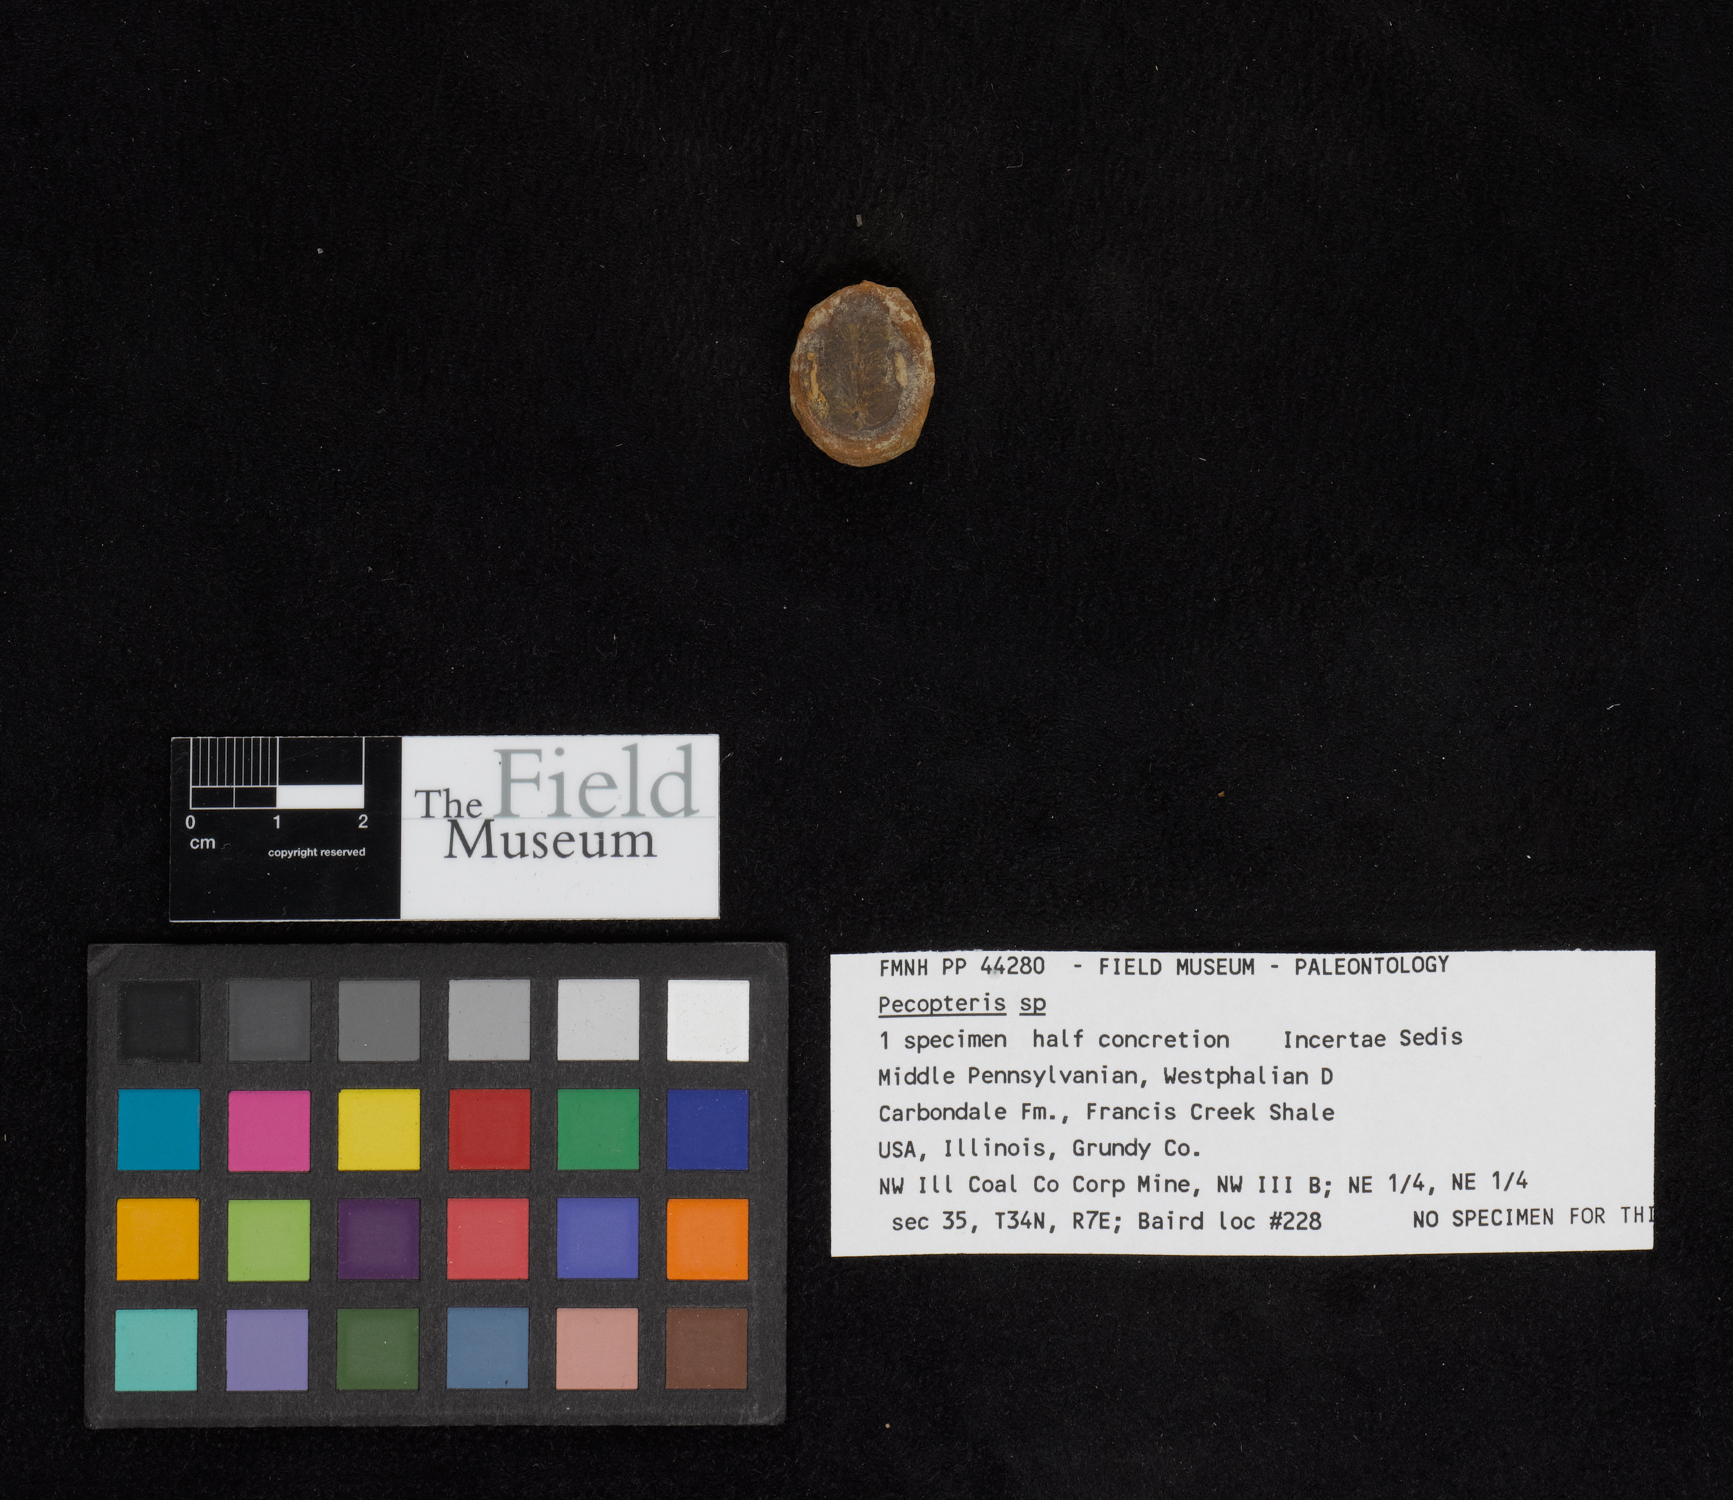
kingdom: Plantae
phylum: Tracheophyta
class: Polypodiopsida
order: Marattiales
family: Asterothecaceae
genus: Pecopteris
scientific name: Pecopteris
